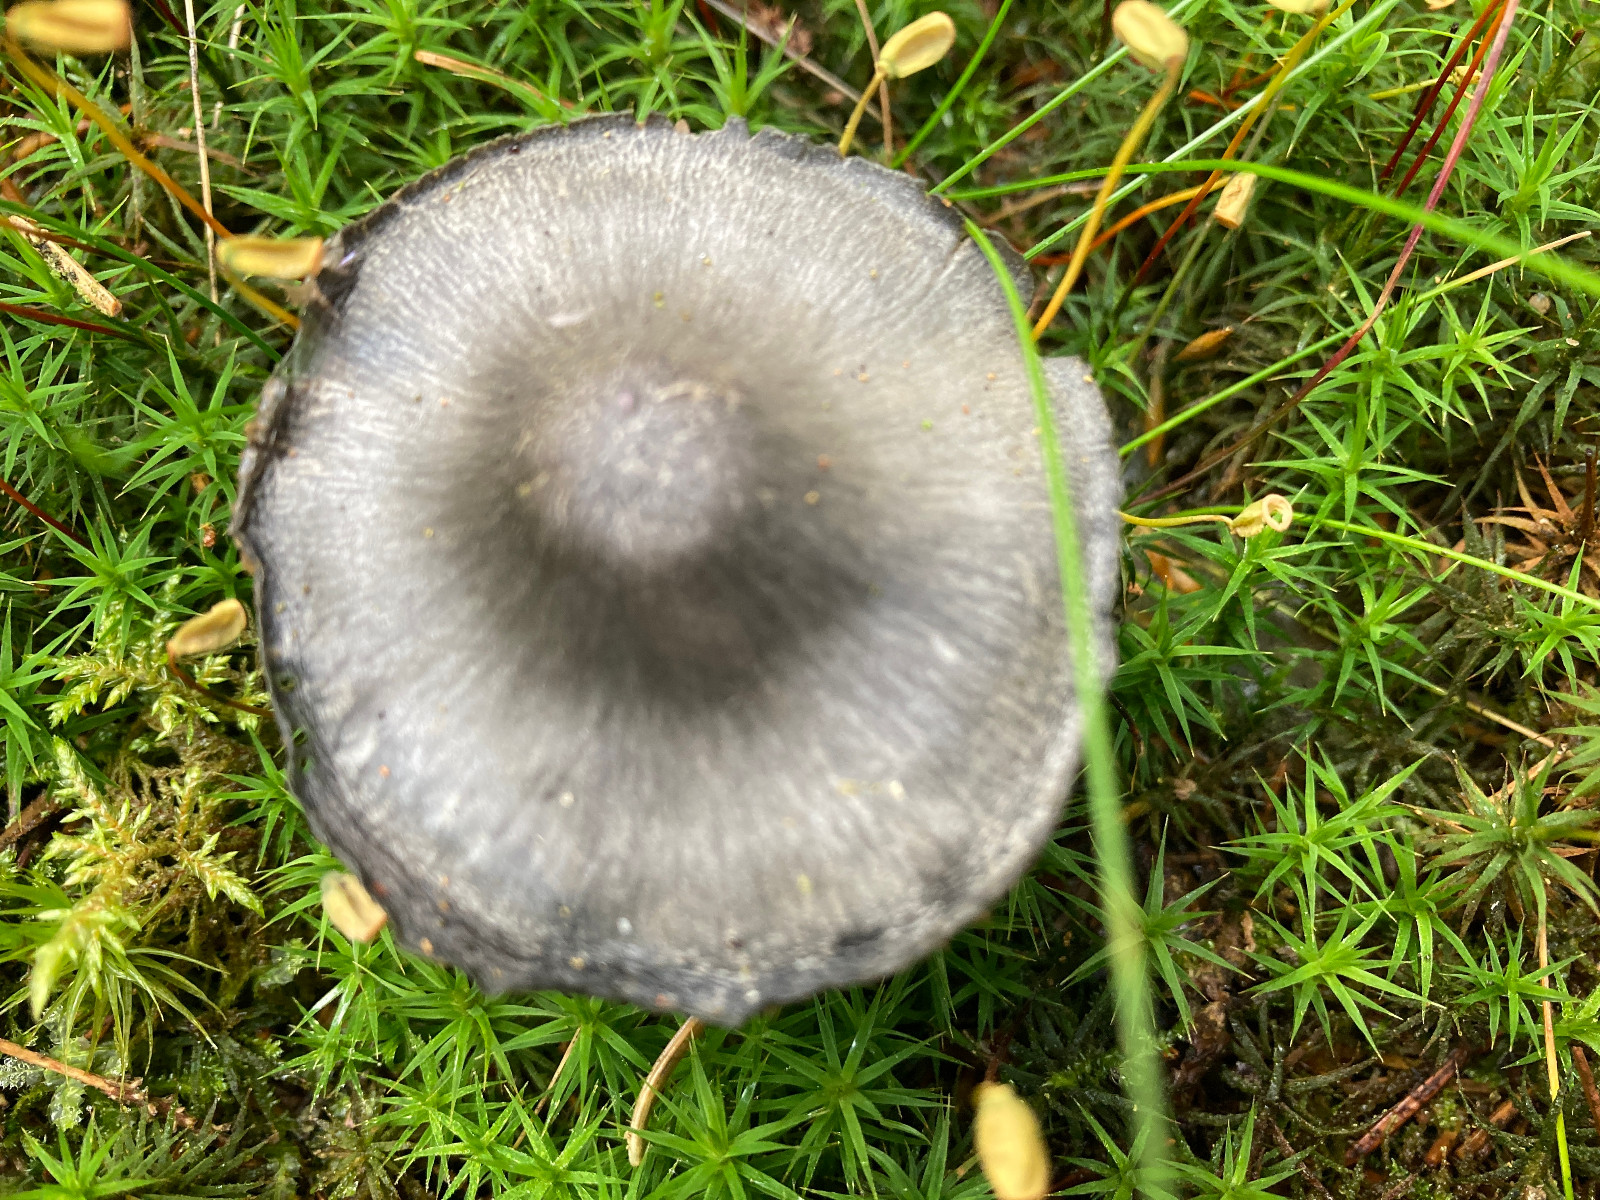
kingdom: Fungi
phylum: Basidiomycota
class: Agaricomycetes
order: Agaricales
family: Entolomataceae
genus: Entocybe
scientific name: Entocybe nitida
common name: stålblå rødblad
